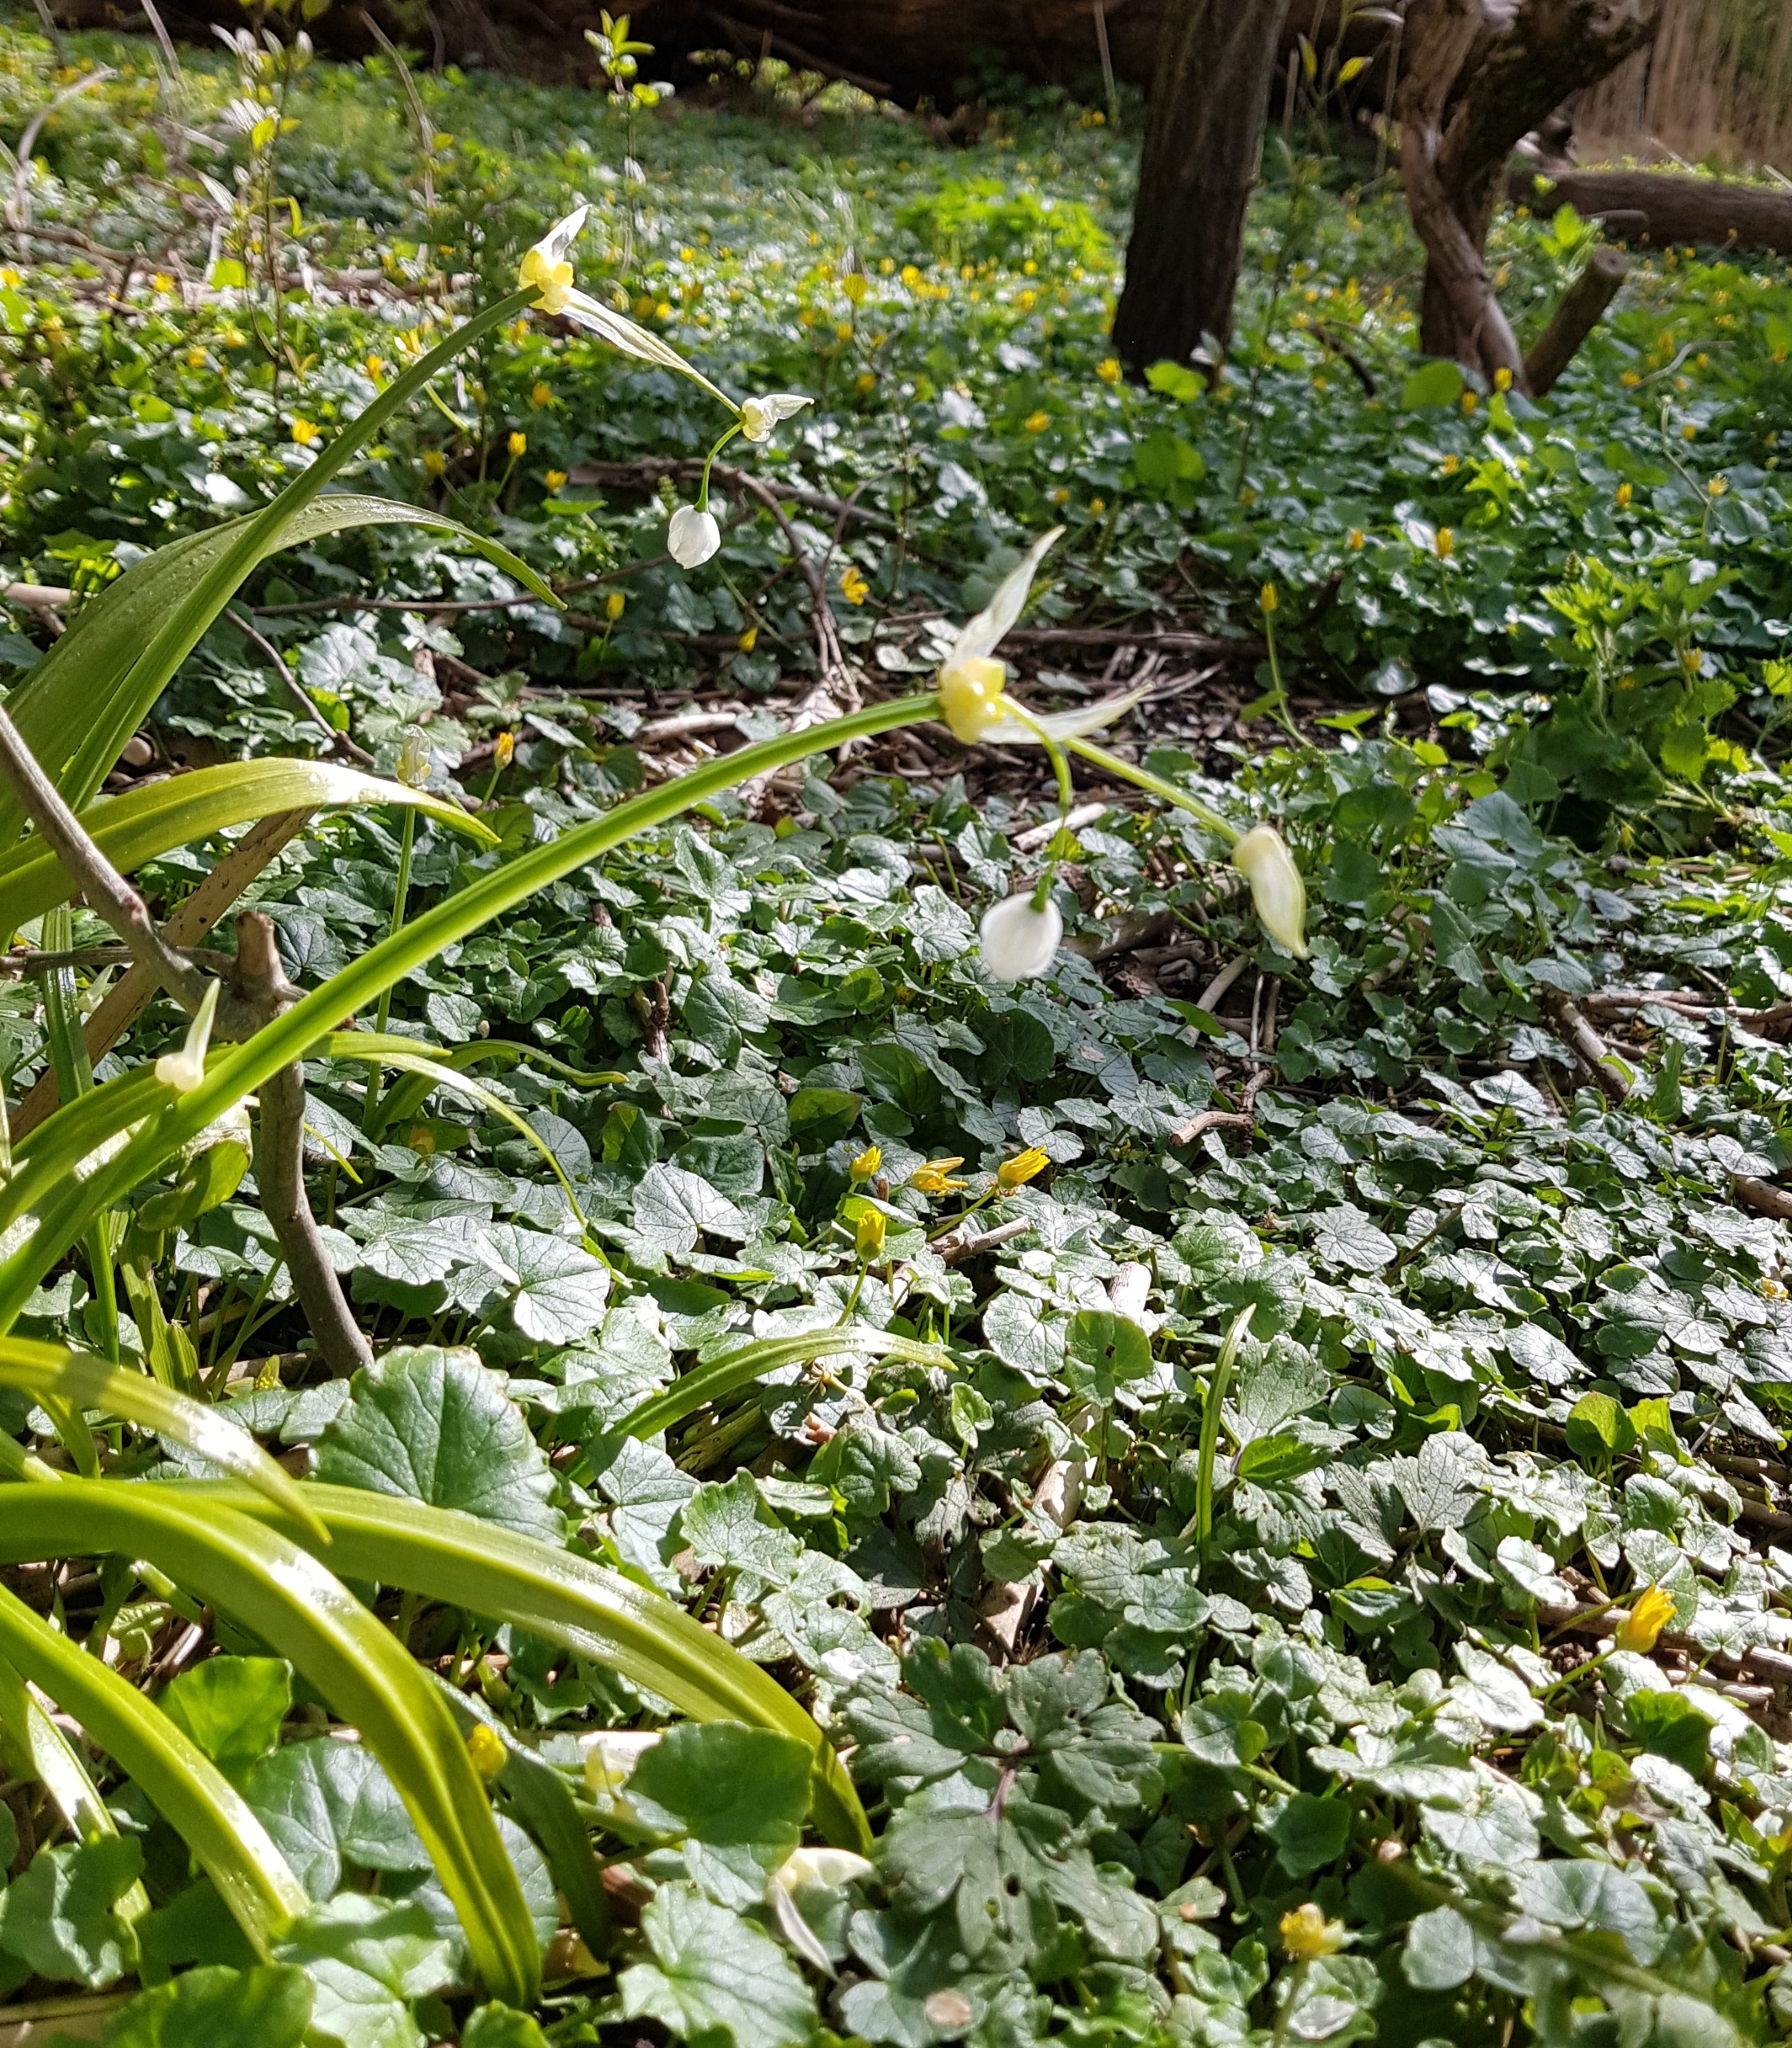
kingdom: Plantae
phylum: Tracheophyta
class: Liliopsida
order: Asparagales
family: Amaryllidaceae
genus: Allium
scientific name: Allium paradoxum
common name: Spøjs løg
